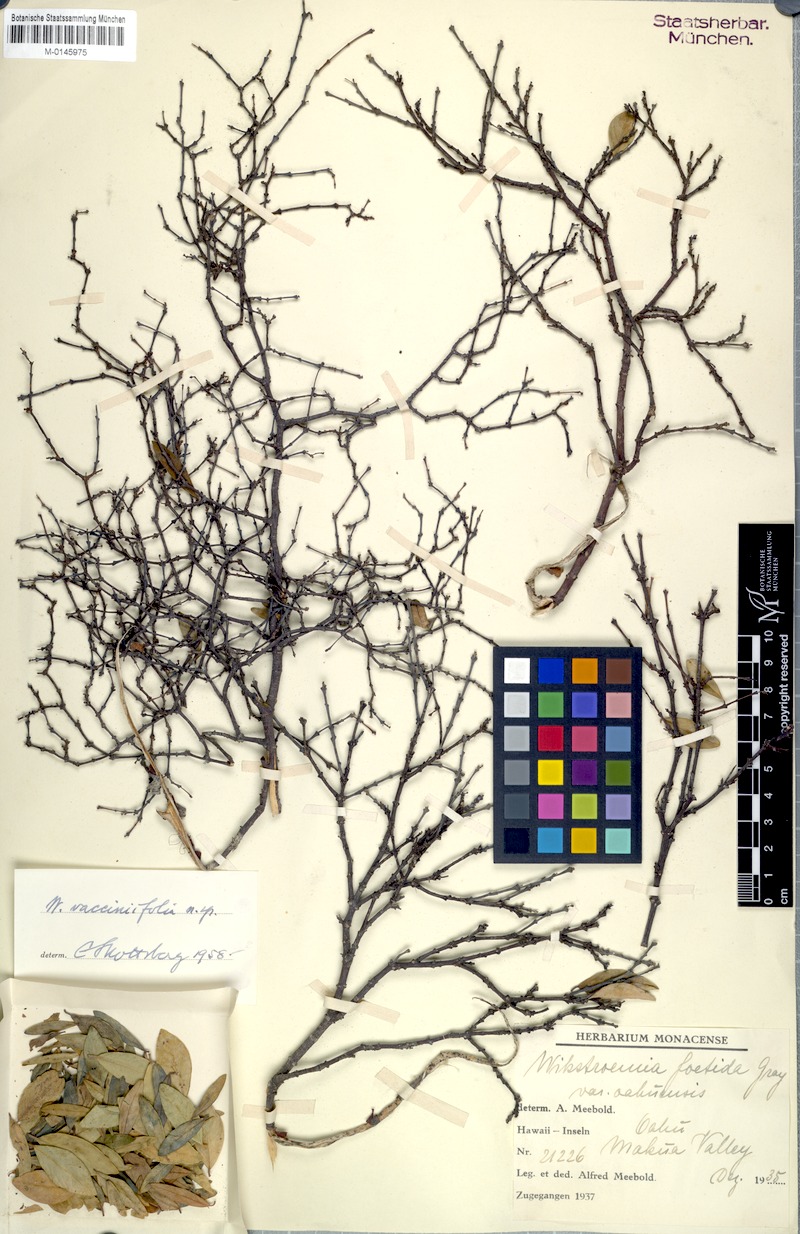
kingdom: Plantae
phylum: Tracheophyta
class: Magnoliopsida
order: Malvales
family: Thymelaeaceae
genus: Wikstroemia
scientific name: Wikstroemia oahuensis
